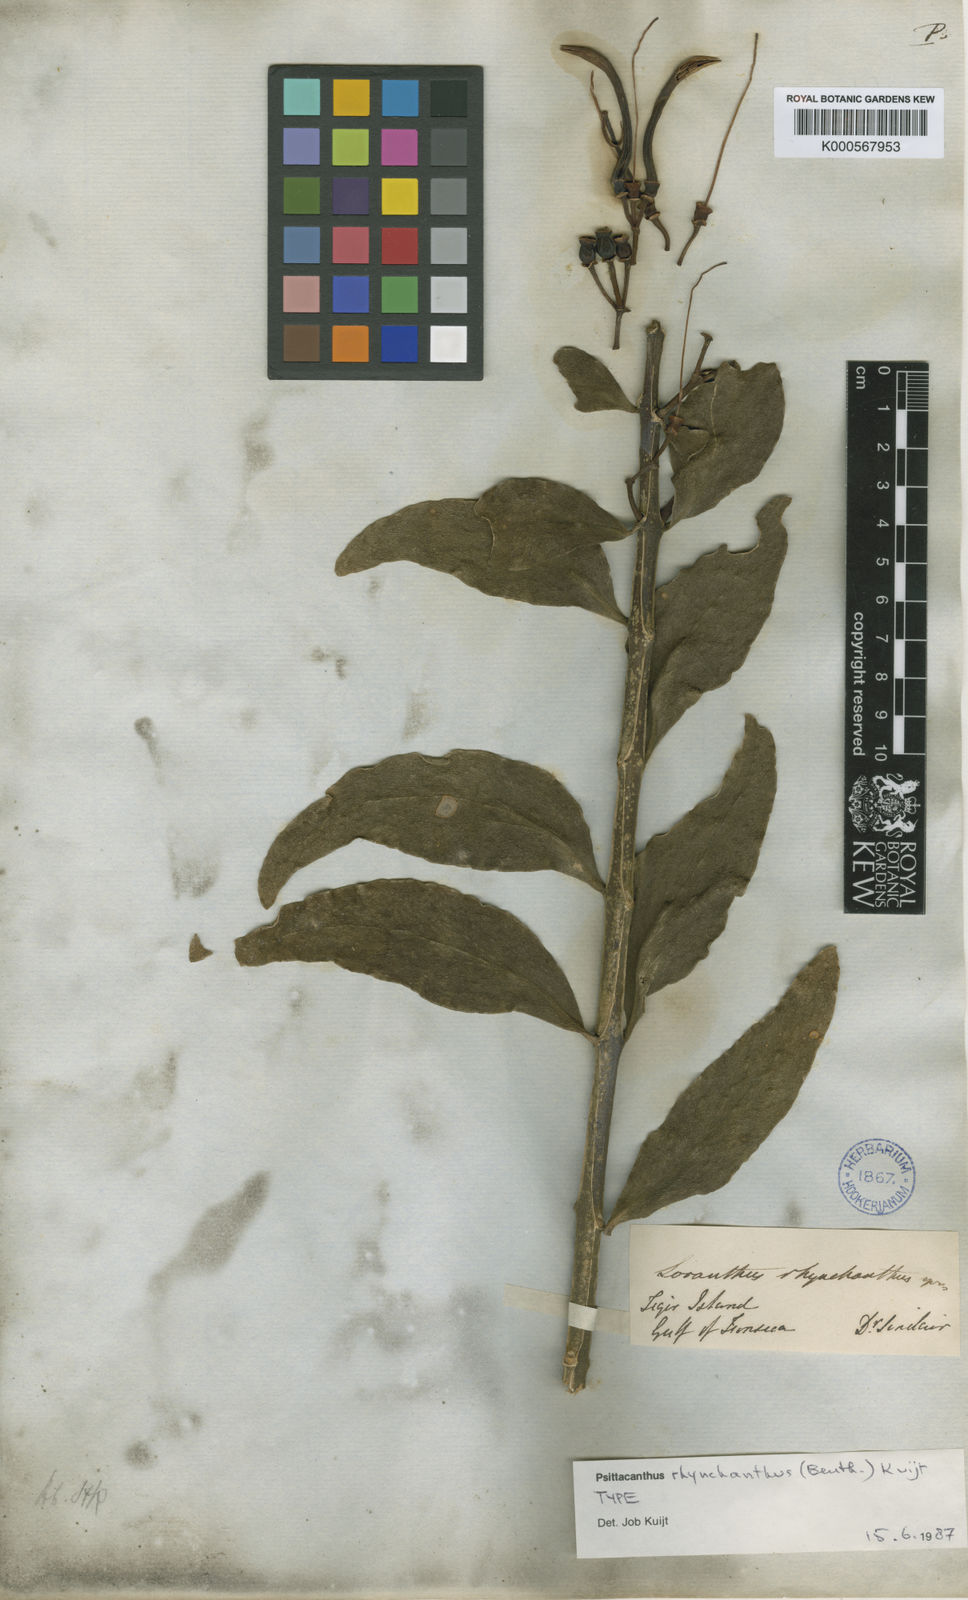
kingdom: Plantae
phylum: Tracheophyta
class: Magnoliopsida
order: Santalales
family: Loranthaceae
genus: Psittacanthus
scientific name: Psittacanthus rhynchanthus
